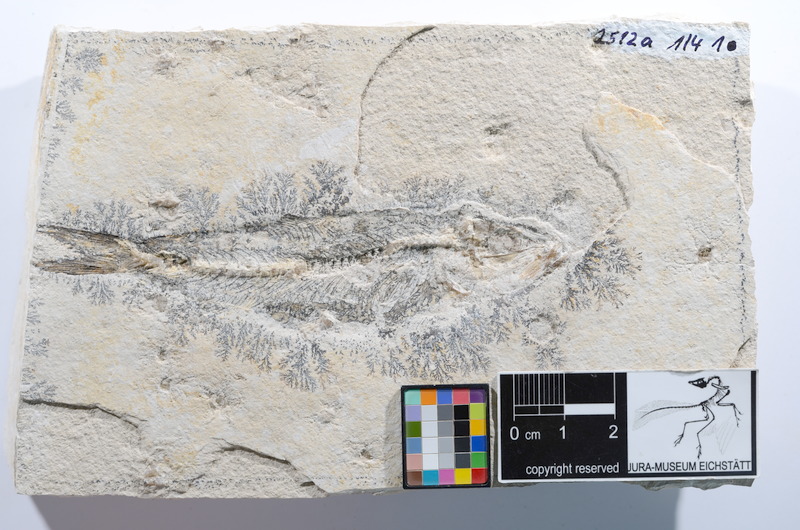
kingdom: Animalia
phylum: Chordata
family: Ascalaboidae
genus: Ascalabos
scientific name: Ascalabos voithii
